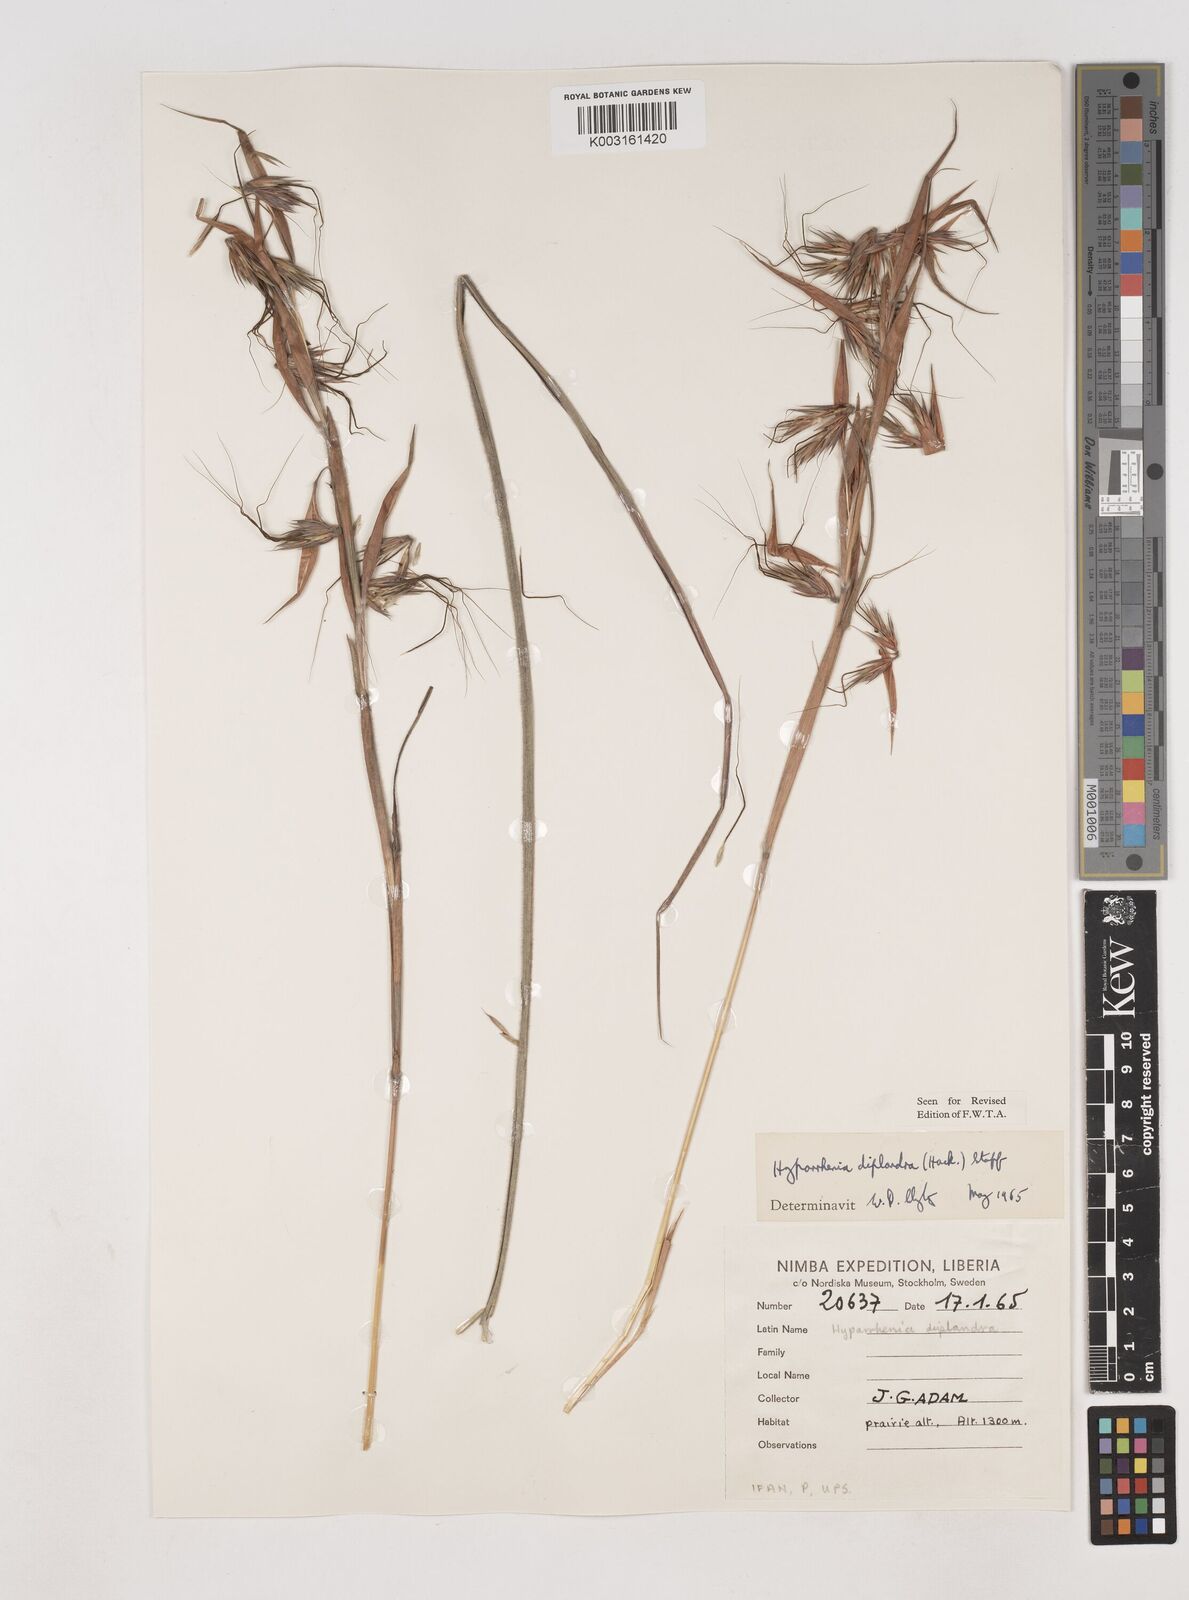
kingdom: Plantae
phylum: Tracheophyta
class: Liliopsida
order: Poales
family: Poaceae
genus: Hyparrhenia
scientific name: Hyparrhenia diplandra
